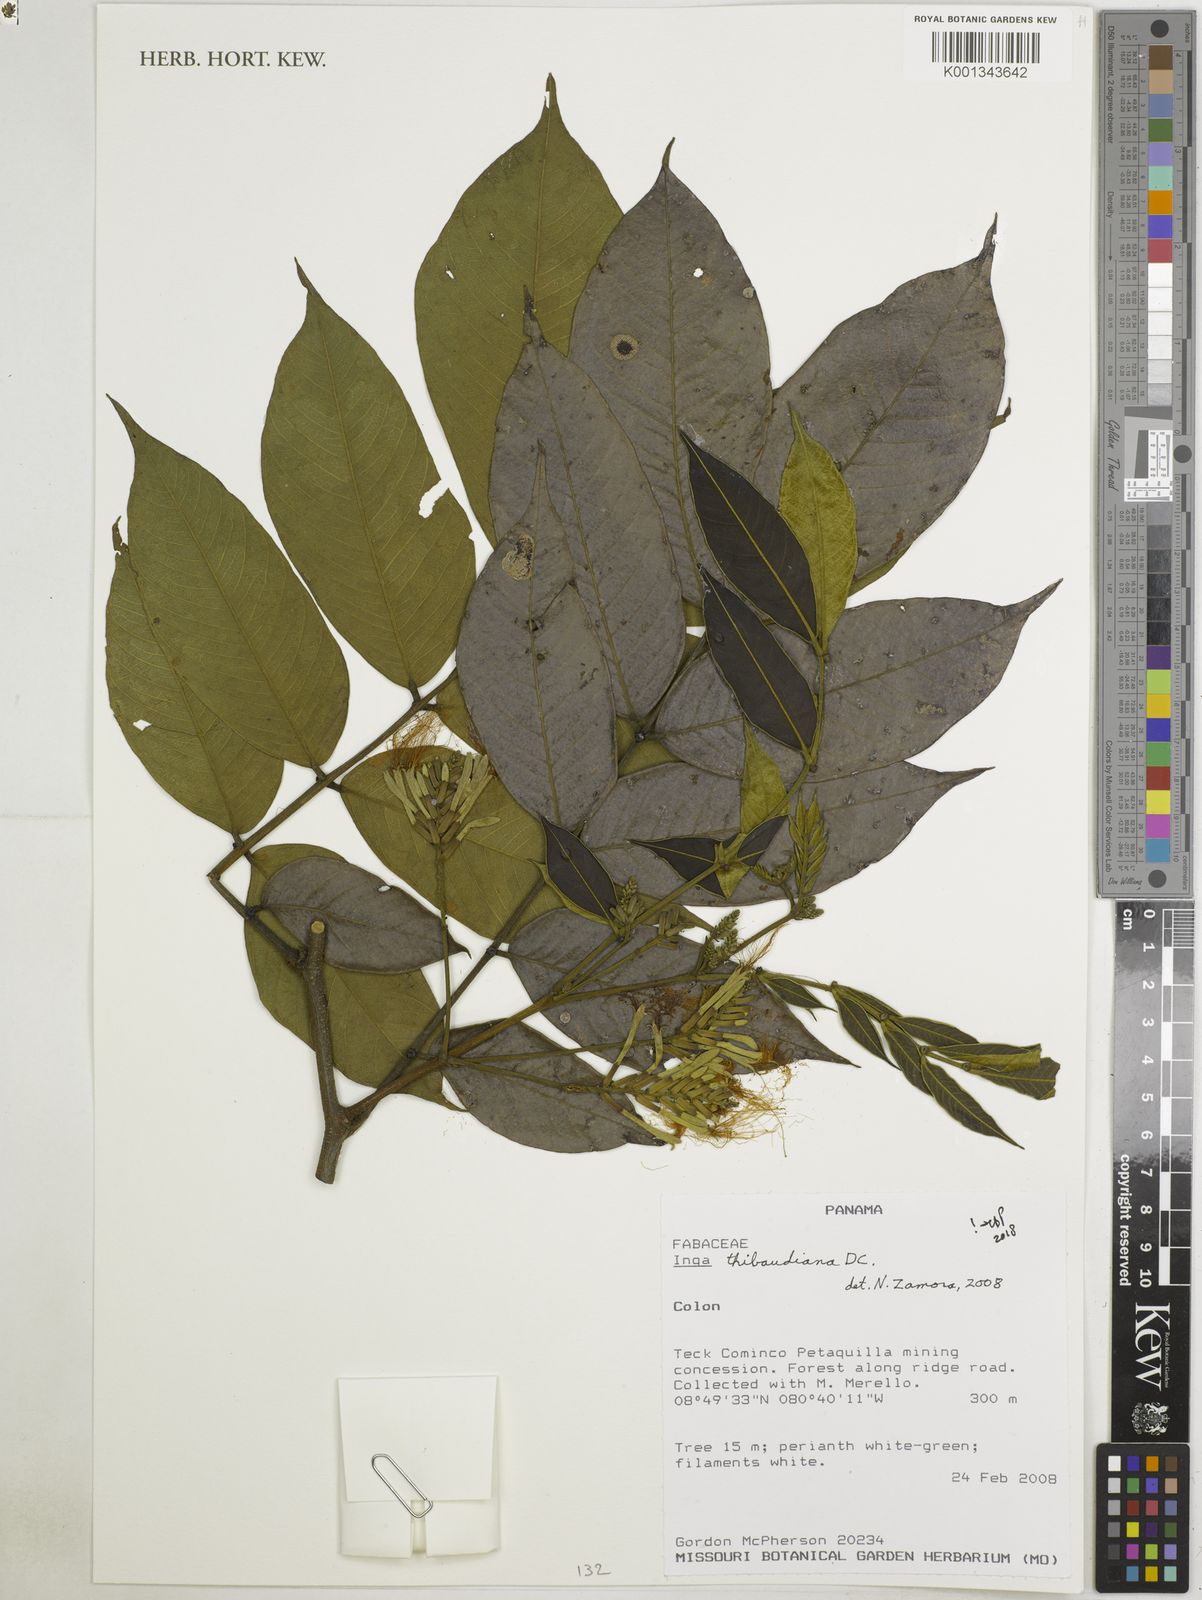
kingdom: Plantae
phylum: Tracheophyta
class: Magnoliopsida
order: Fabales
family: Fabaceae
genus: Inga
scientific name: Inga thibaudiana
